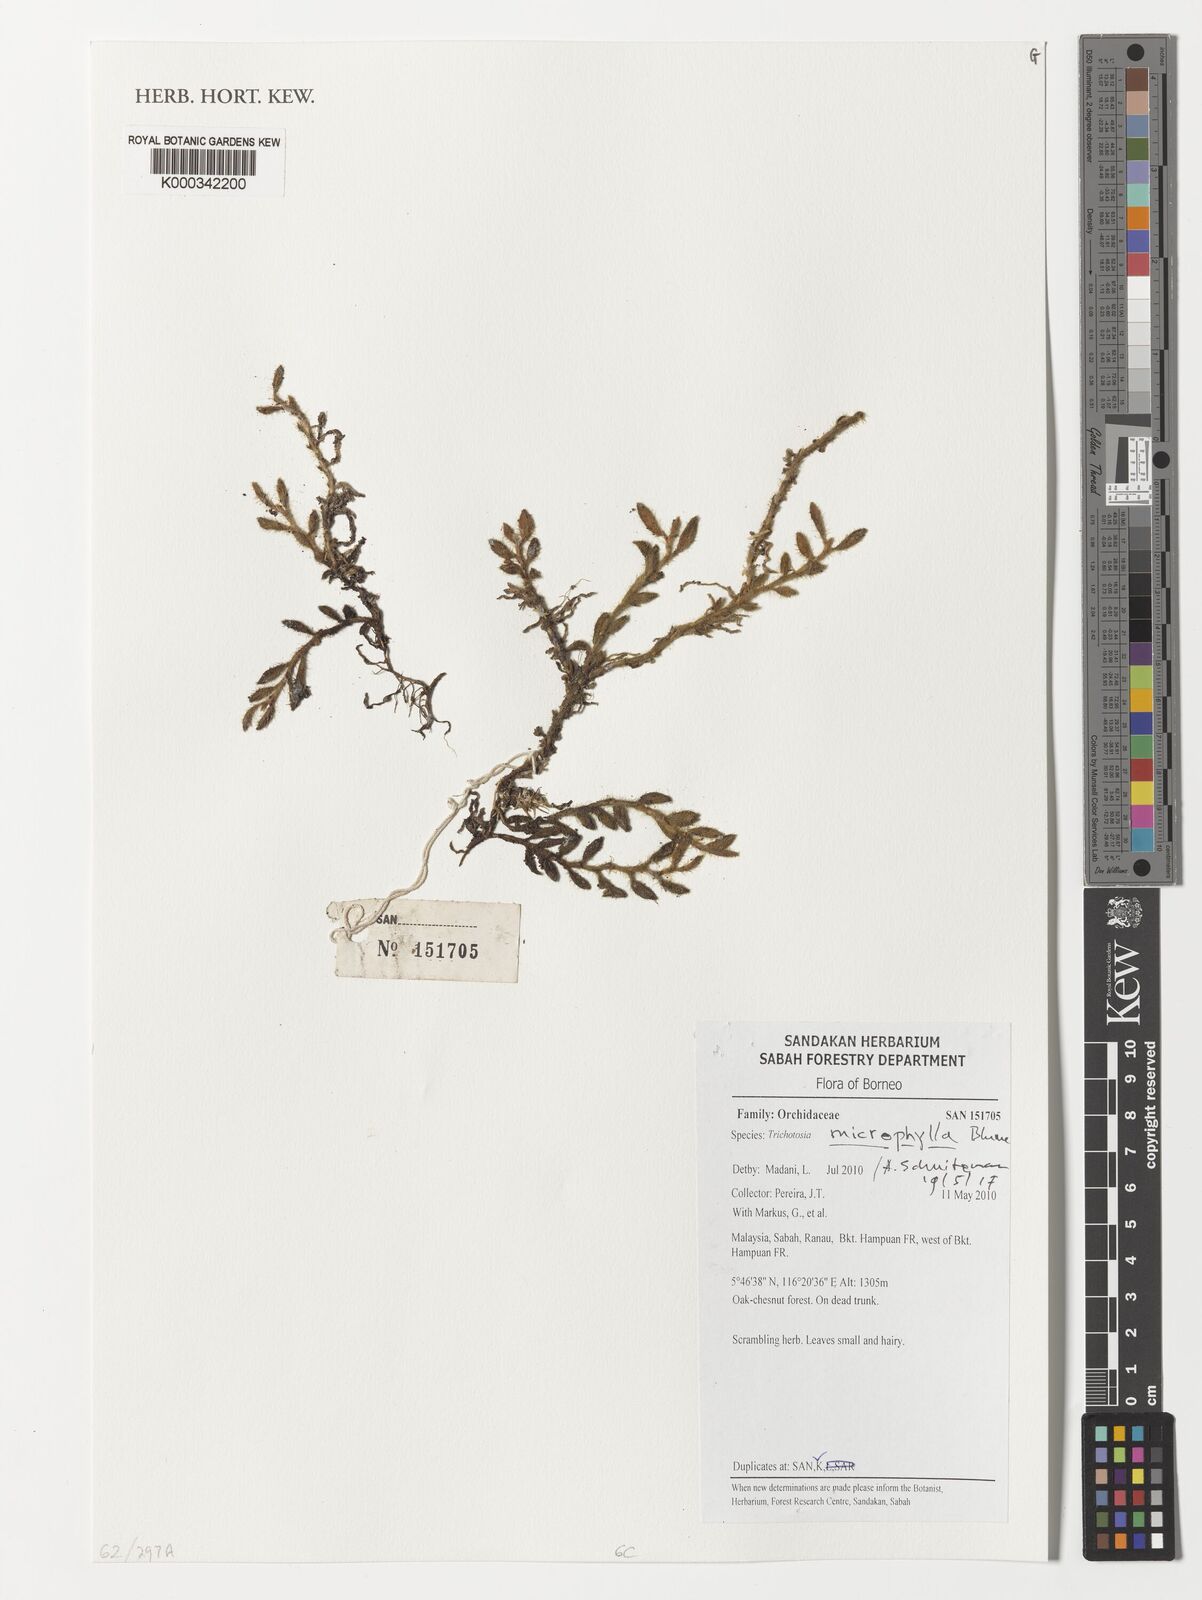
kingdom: Plantae
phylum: Tracheophyta
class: Liliopsida
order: Asparagales
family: Orchidaceae
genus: Trichotosia
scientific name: Trichotosia microphylla
